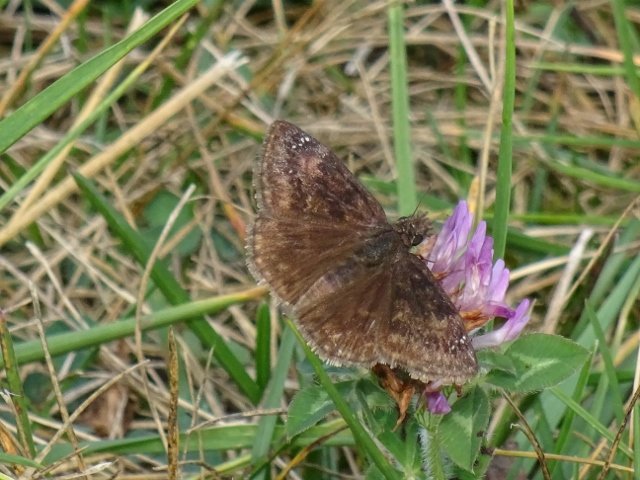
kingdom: Animalia
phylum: Arthropoda
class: Insecta
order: Lepidoptera
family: Hesperiidae
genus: Gesta
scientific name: Gesta
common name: Wild Indigo Duskywing
